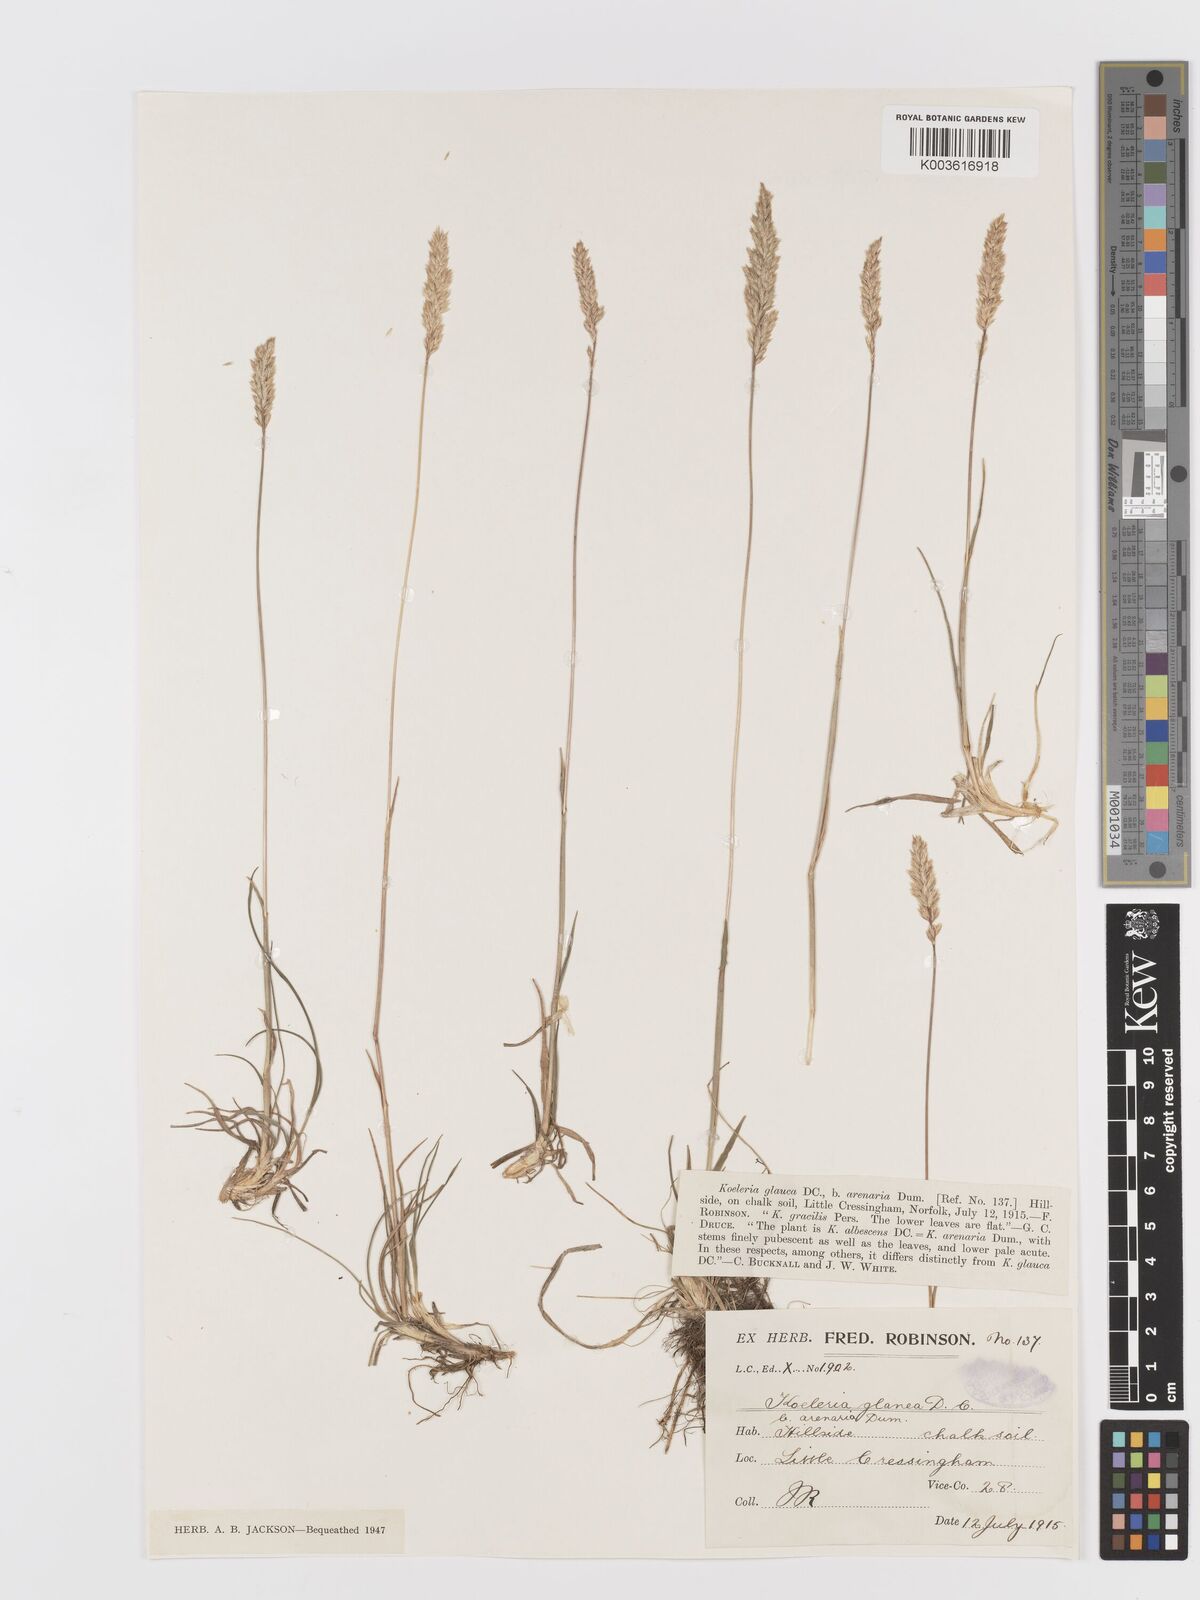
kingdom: Plantae
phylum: Tracheophyta
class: Liliopsida
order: Poales
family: Poaceae
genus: Koeleria
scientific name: Koeleria macrantha
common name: Crested hair-grass
